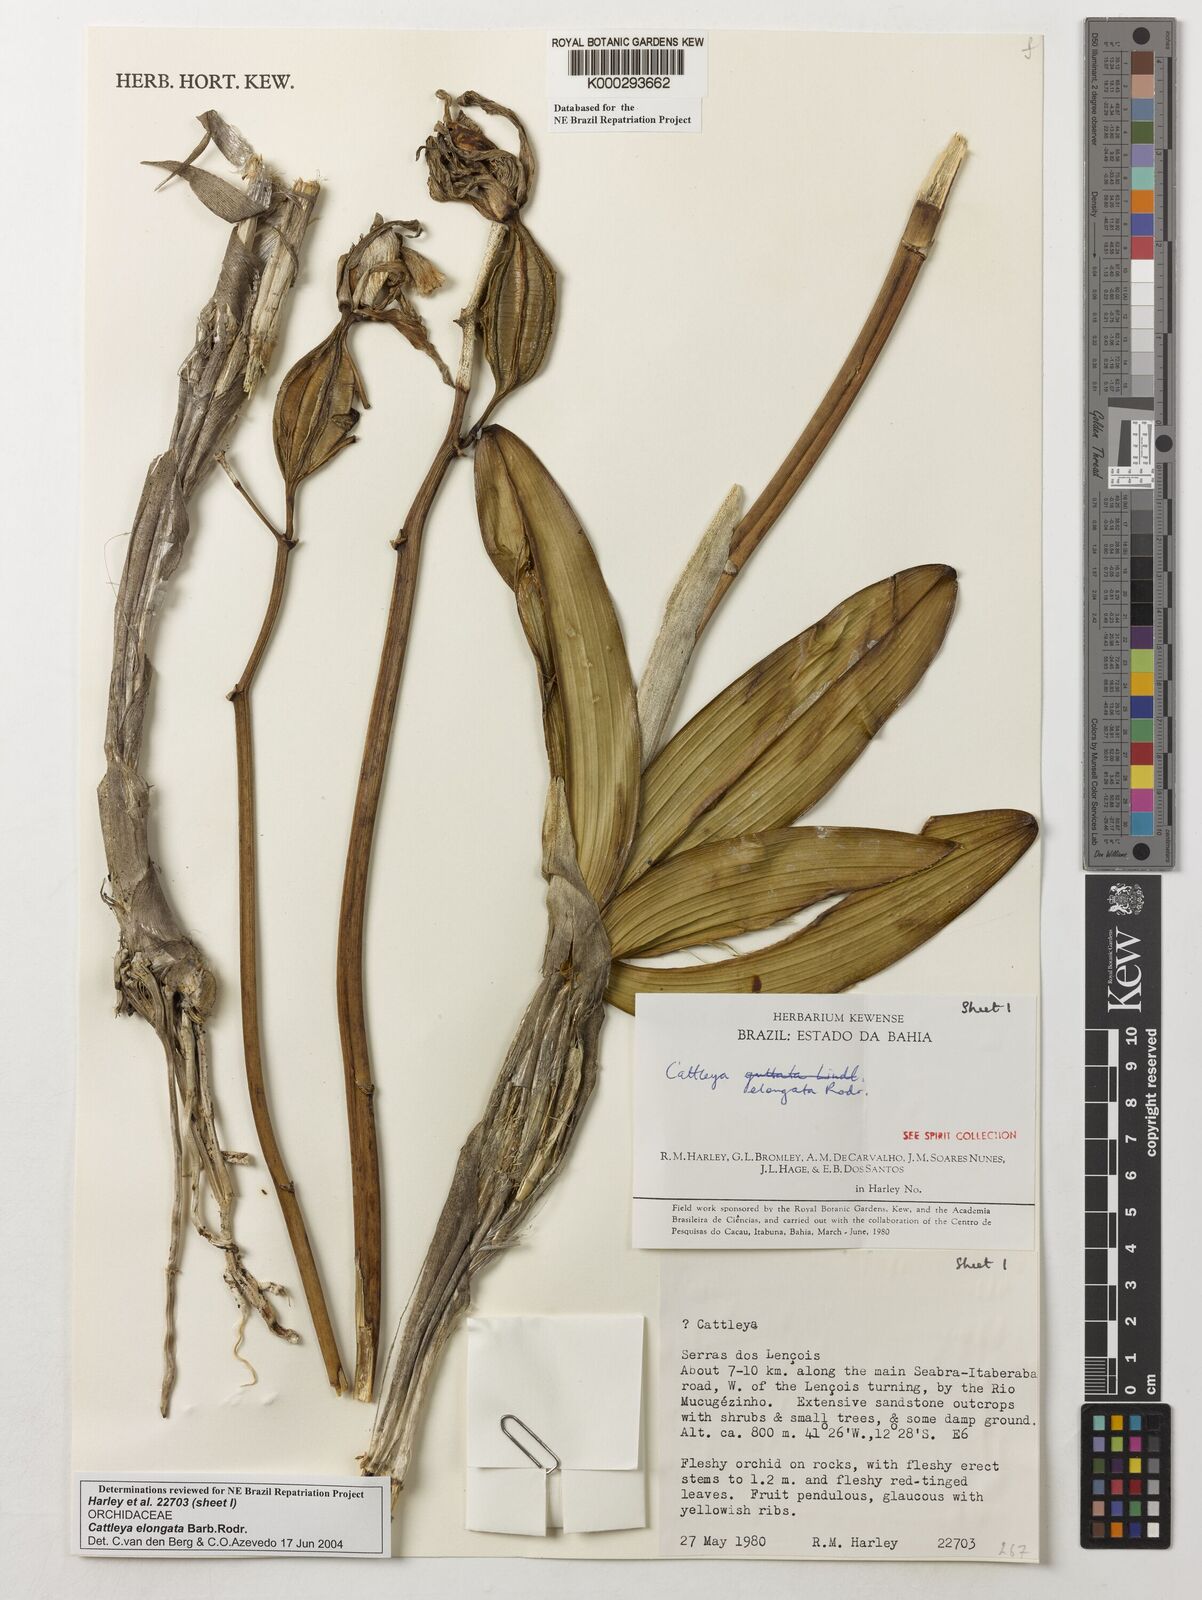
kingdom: Plantae
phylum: Tracheophyta
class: Liliopsida
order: Asparagales
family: Orchidaceae
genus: Cattleya
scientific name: Cattleya elongata
